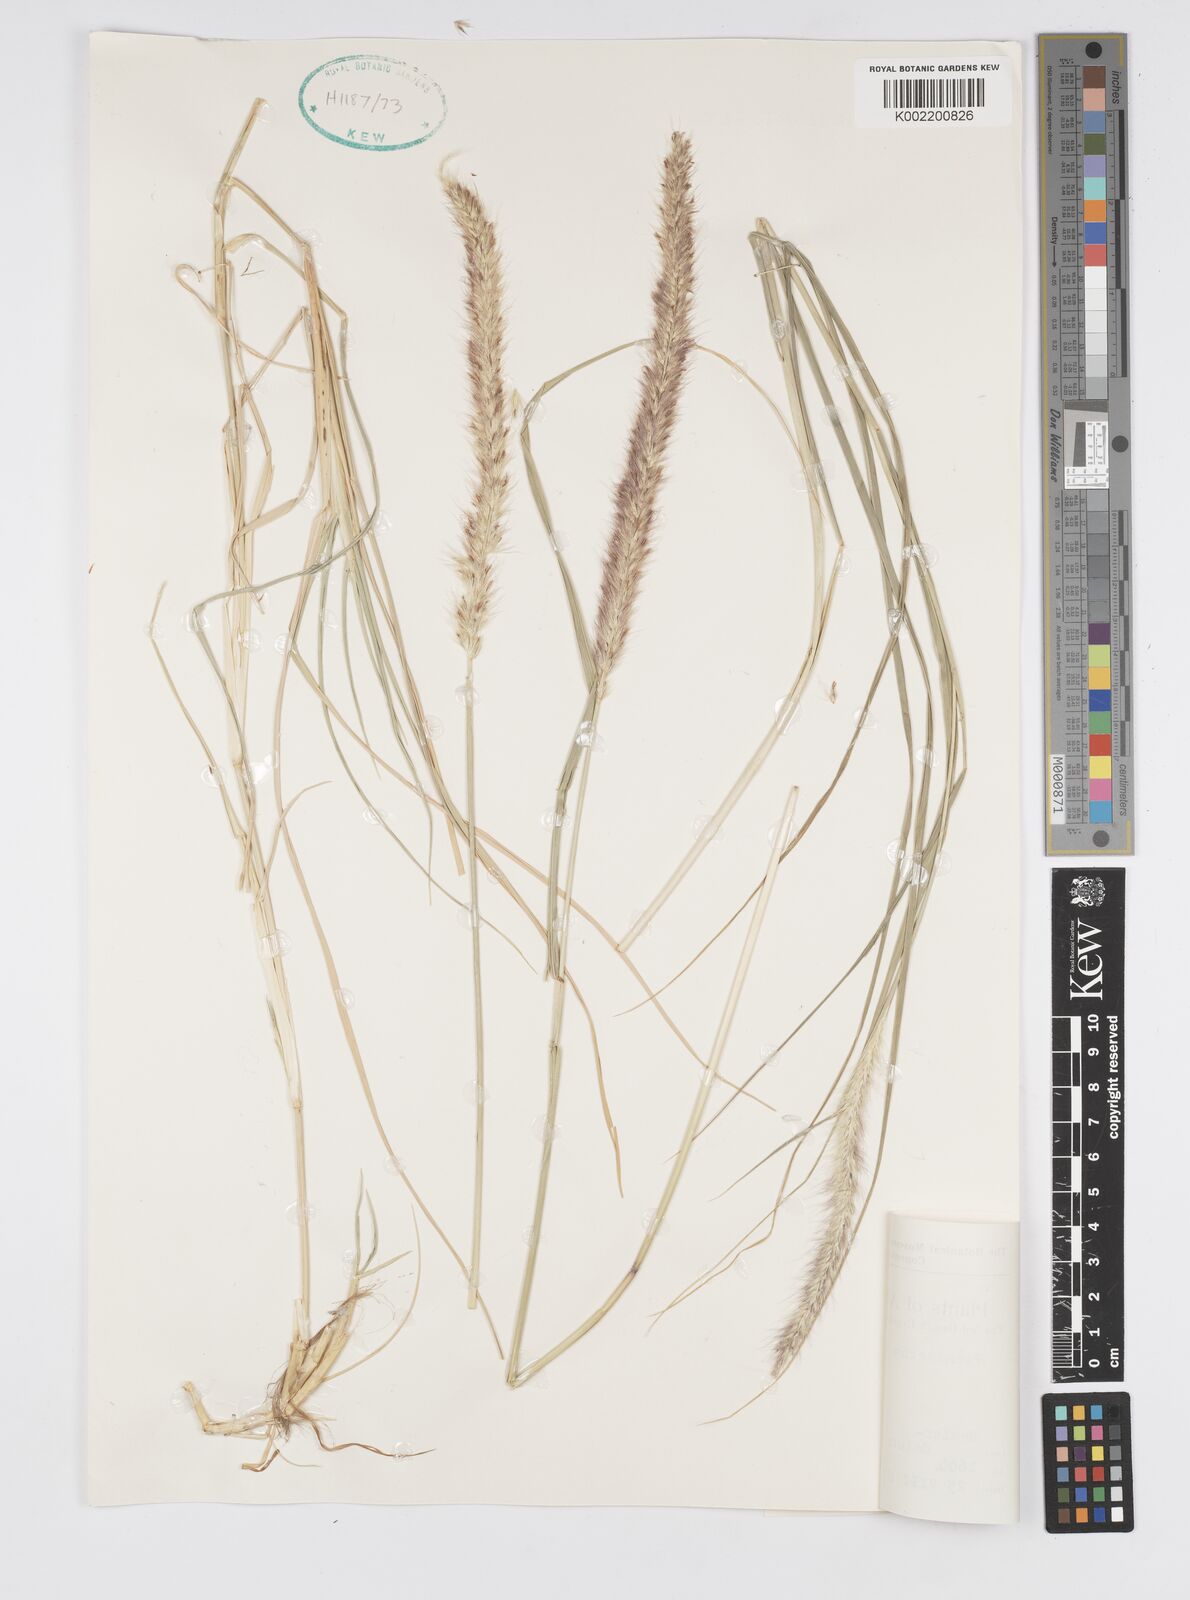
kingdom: Plantae
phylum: Tracheophyta
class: Liliopsida
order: Poales
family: Poaceae
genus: Cenchrus
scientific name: Cenchrus flaccidus
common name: Flaccid grass
